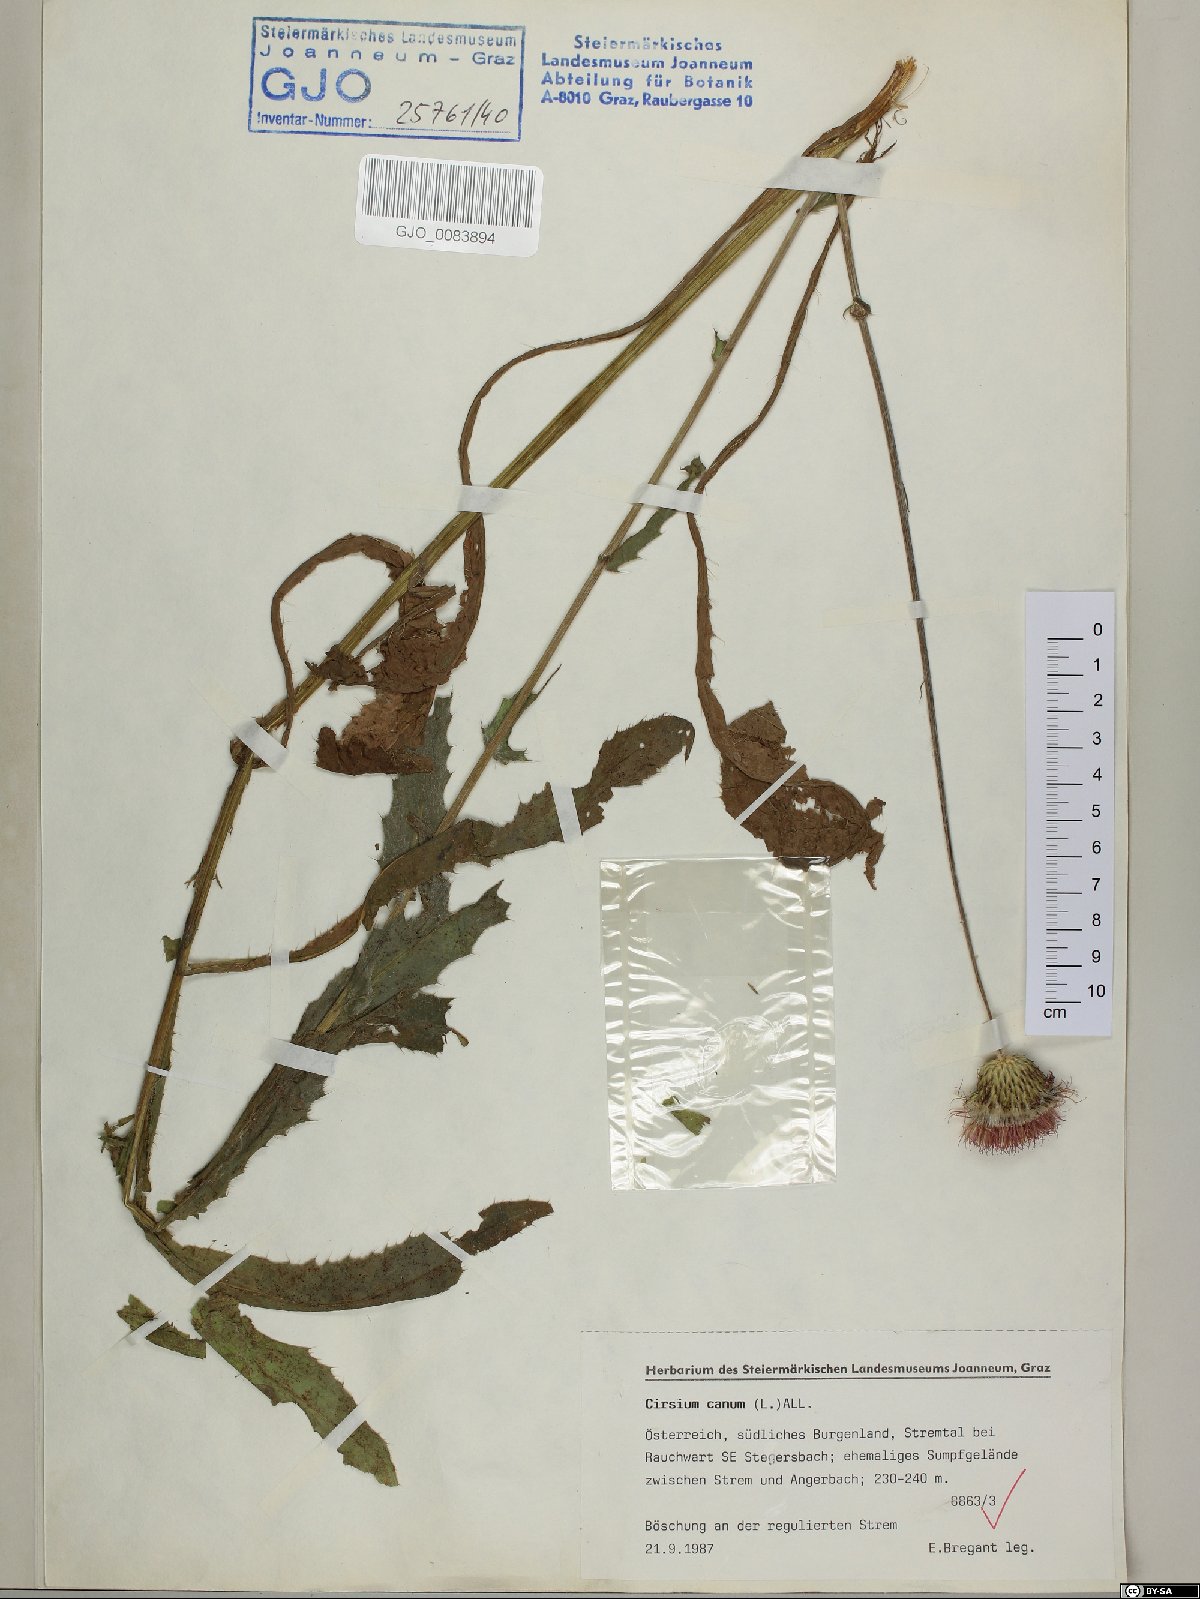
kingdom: Plantae
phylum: Tracheophyta
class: Magnoliopsida
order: Asterales
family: Asteraceae
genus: Cirsium
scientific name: Cirsium canum
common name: Queen anne's thistle
